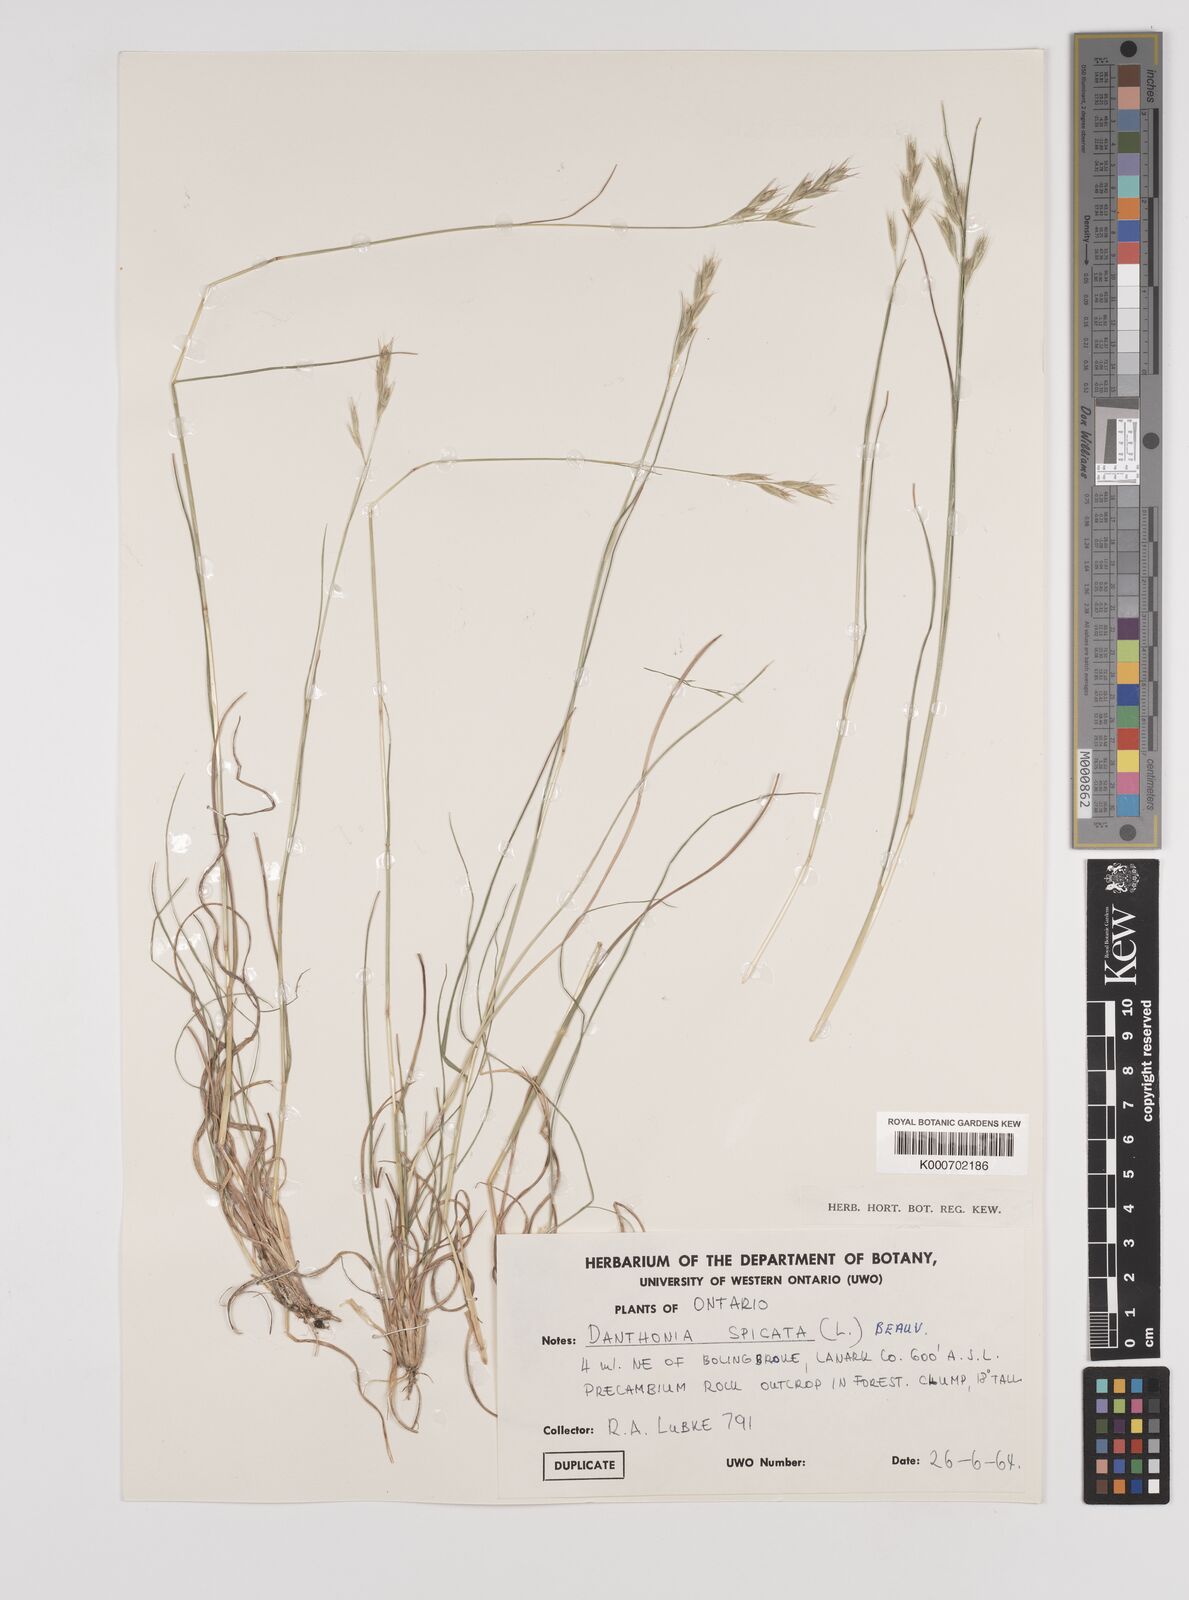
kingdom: Plantae
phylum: Tracheophyta
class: Liliopsida
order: Poales
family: Poaceae
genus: Danthonia
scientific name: Danthonia spicata
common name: Common wild oatgrass
